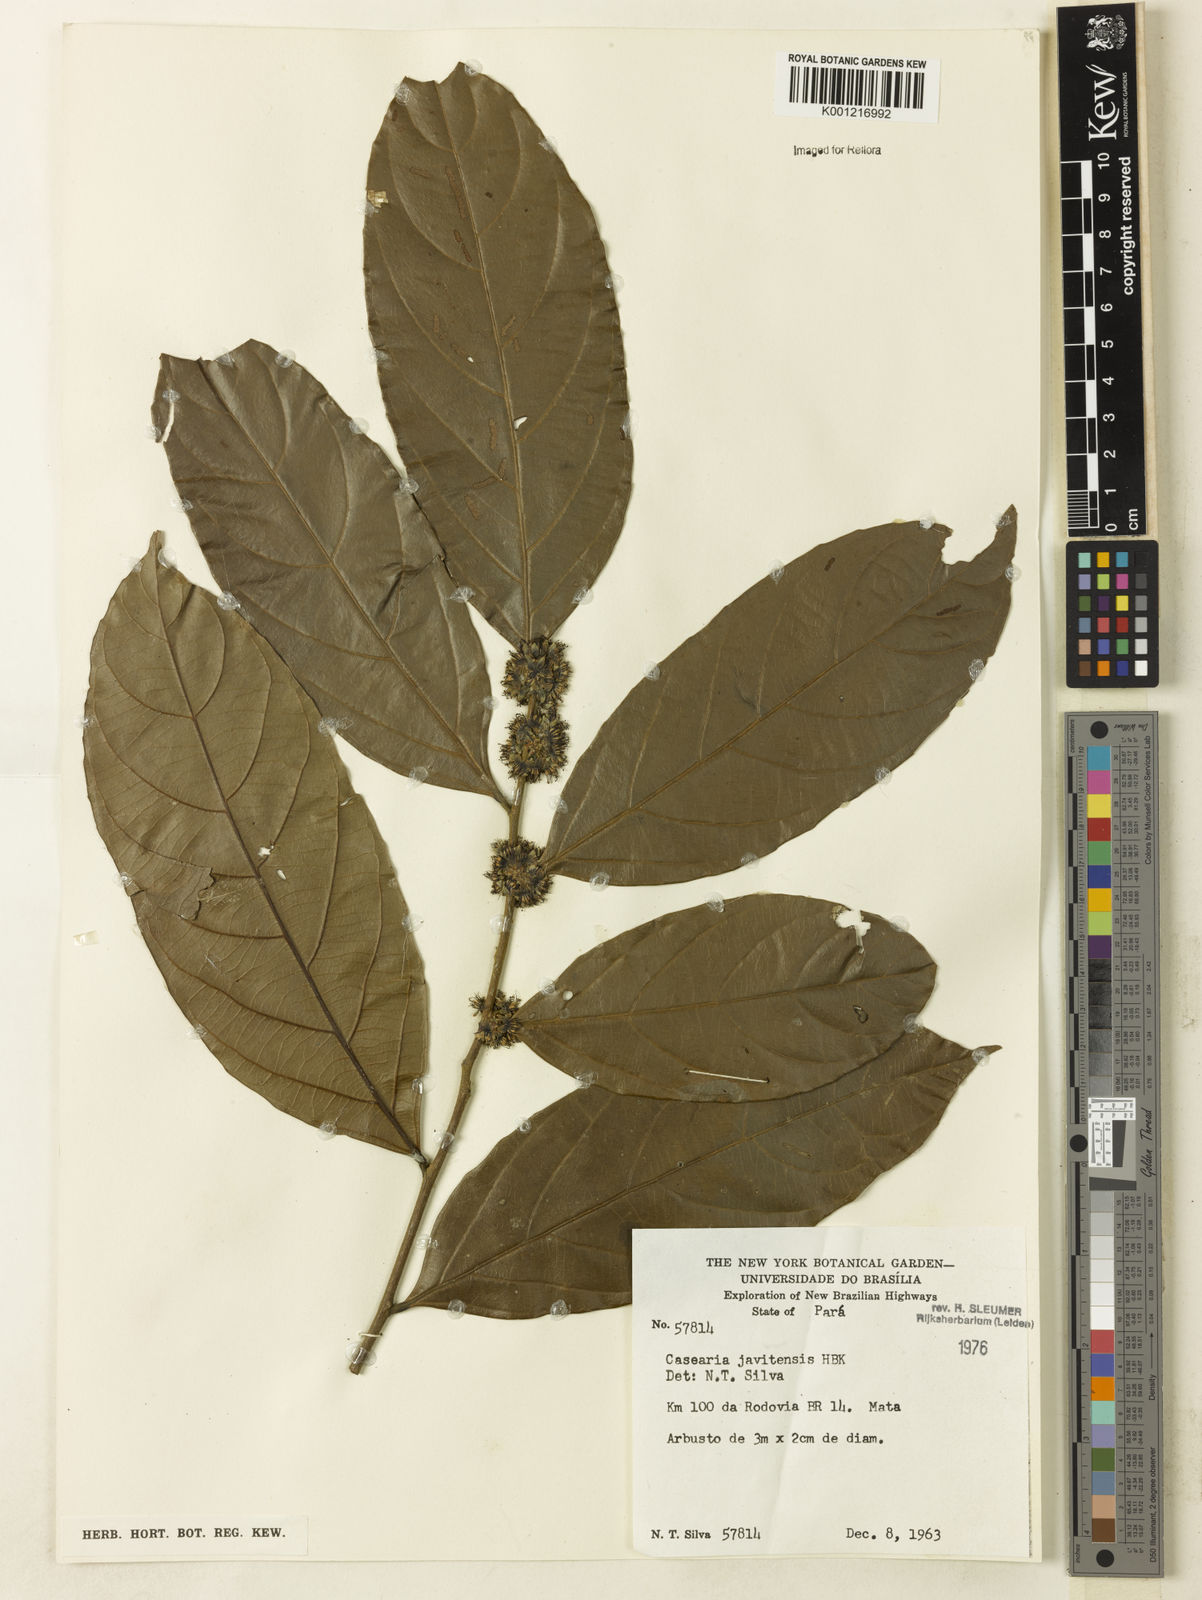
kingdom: Plantae
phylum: Tracheophyta
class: Magnoliopsida
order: Malpighiales
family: Salicaceae
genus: Piparea
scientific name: Piparea multiflora
